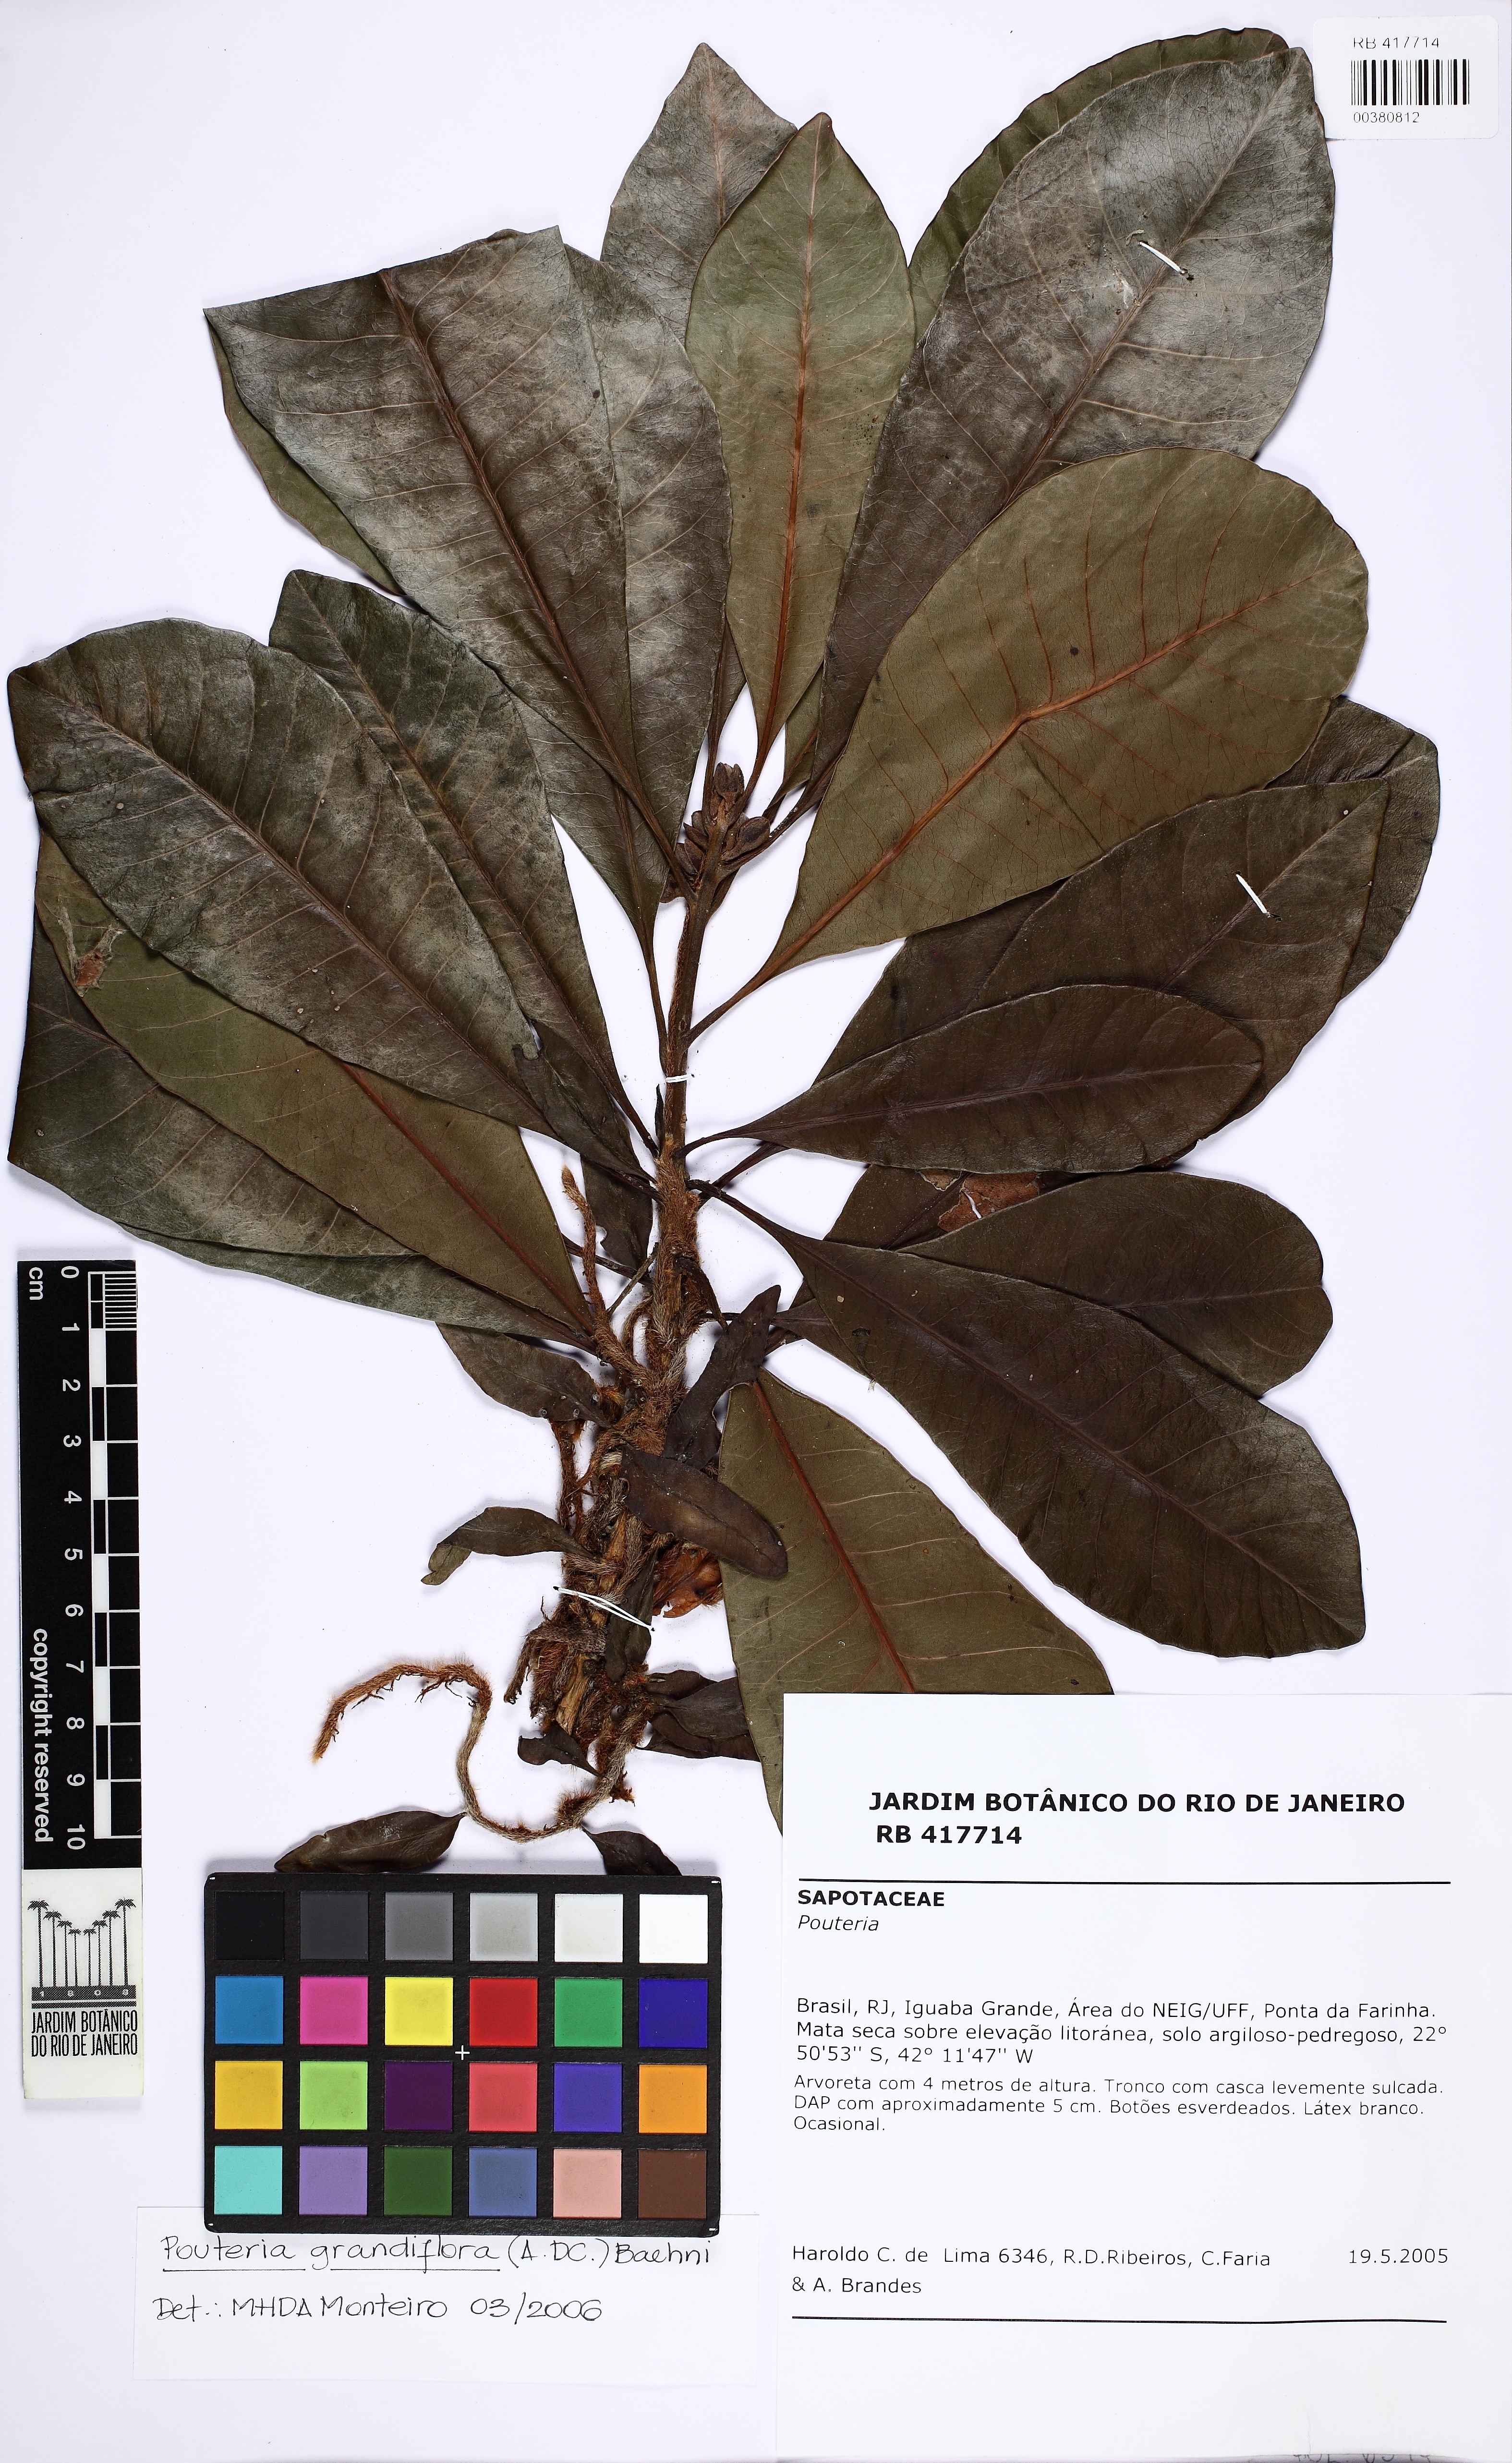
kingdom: Plantae
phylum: Tracheophyta
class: Magnoliopsida
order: Ericales
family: Sapotaceae
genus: Pouteria
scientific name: Pouteria grandiflora
